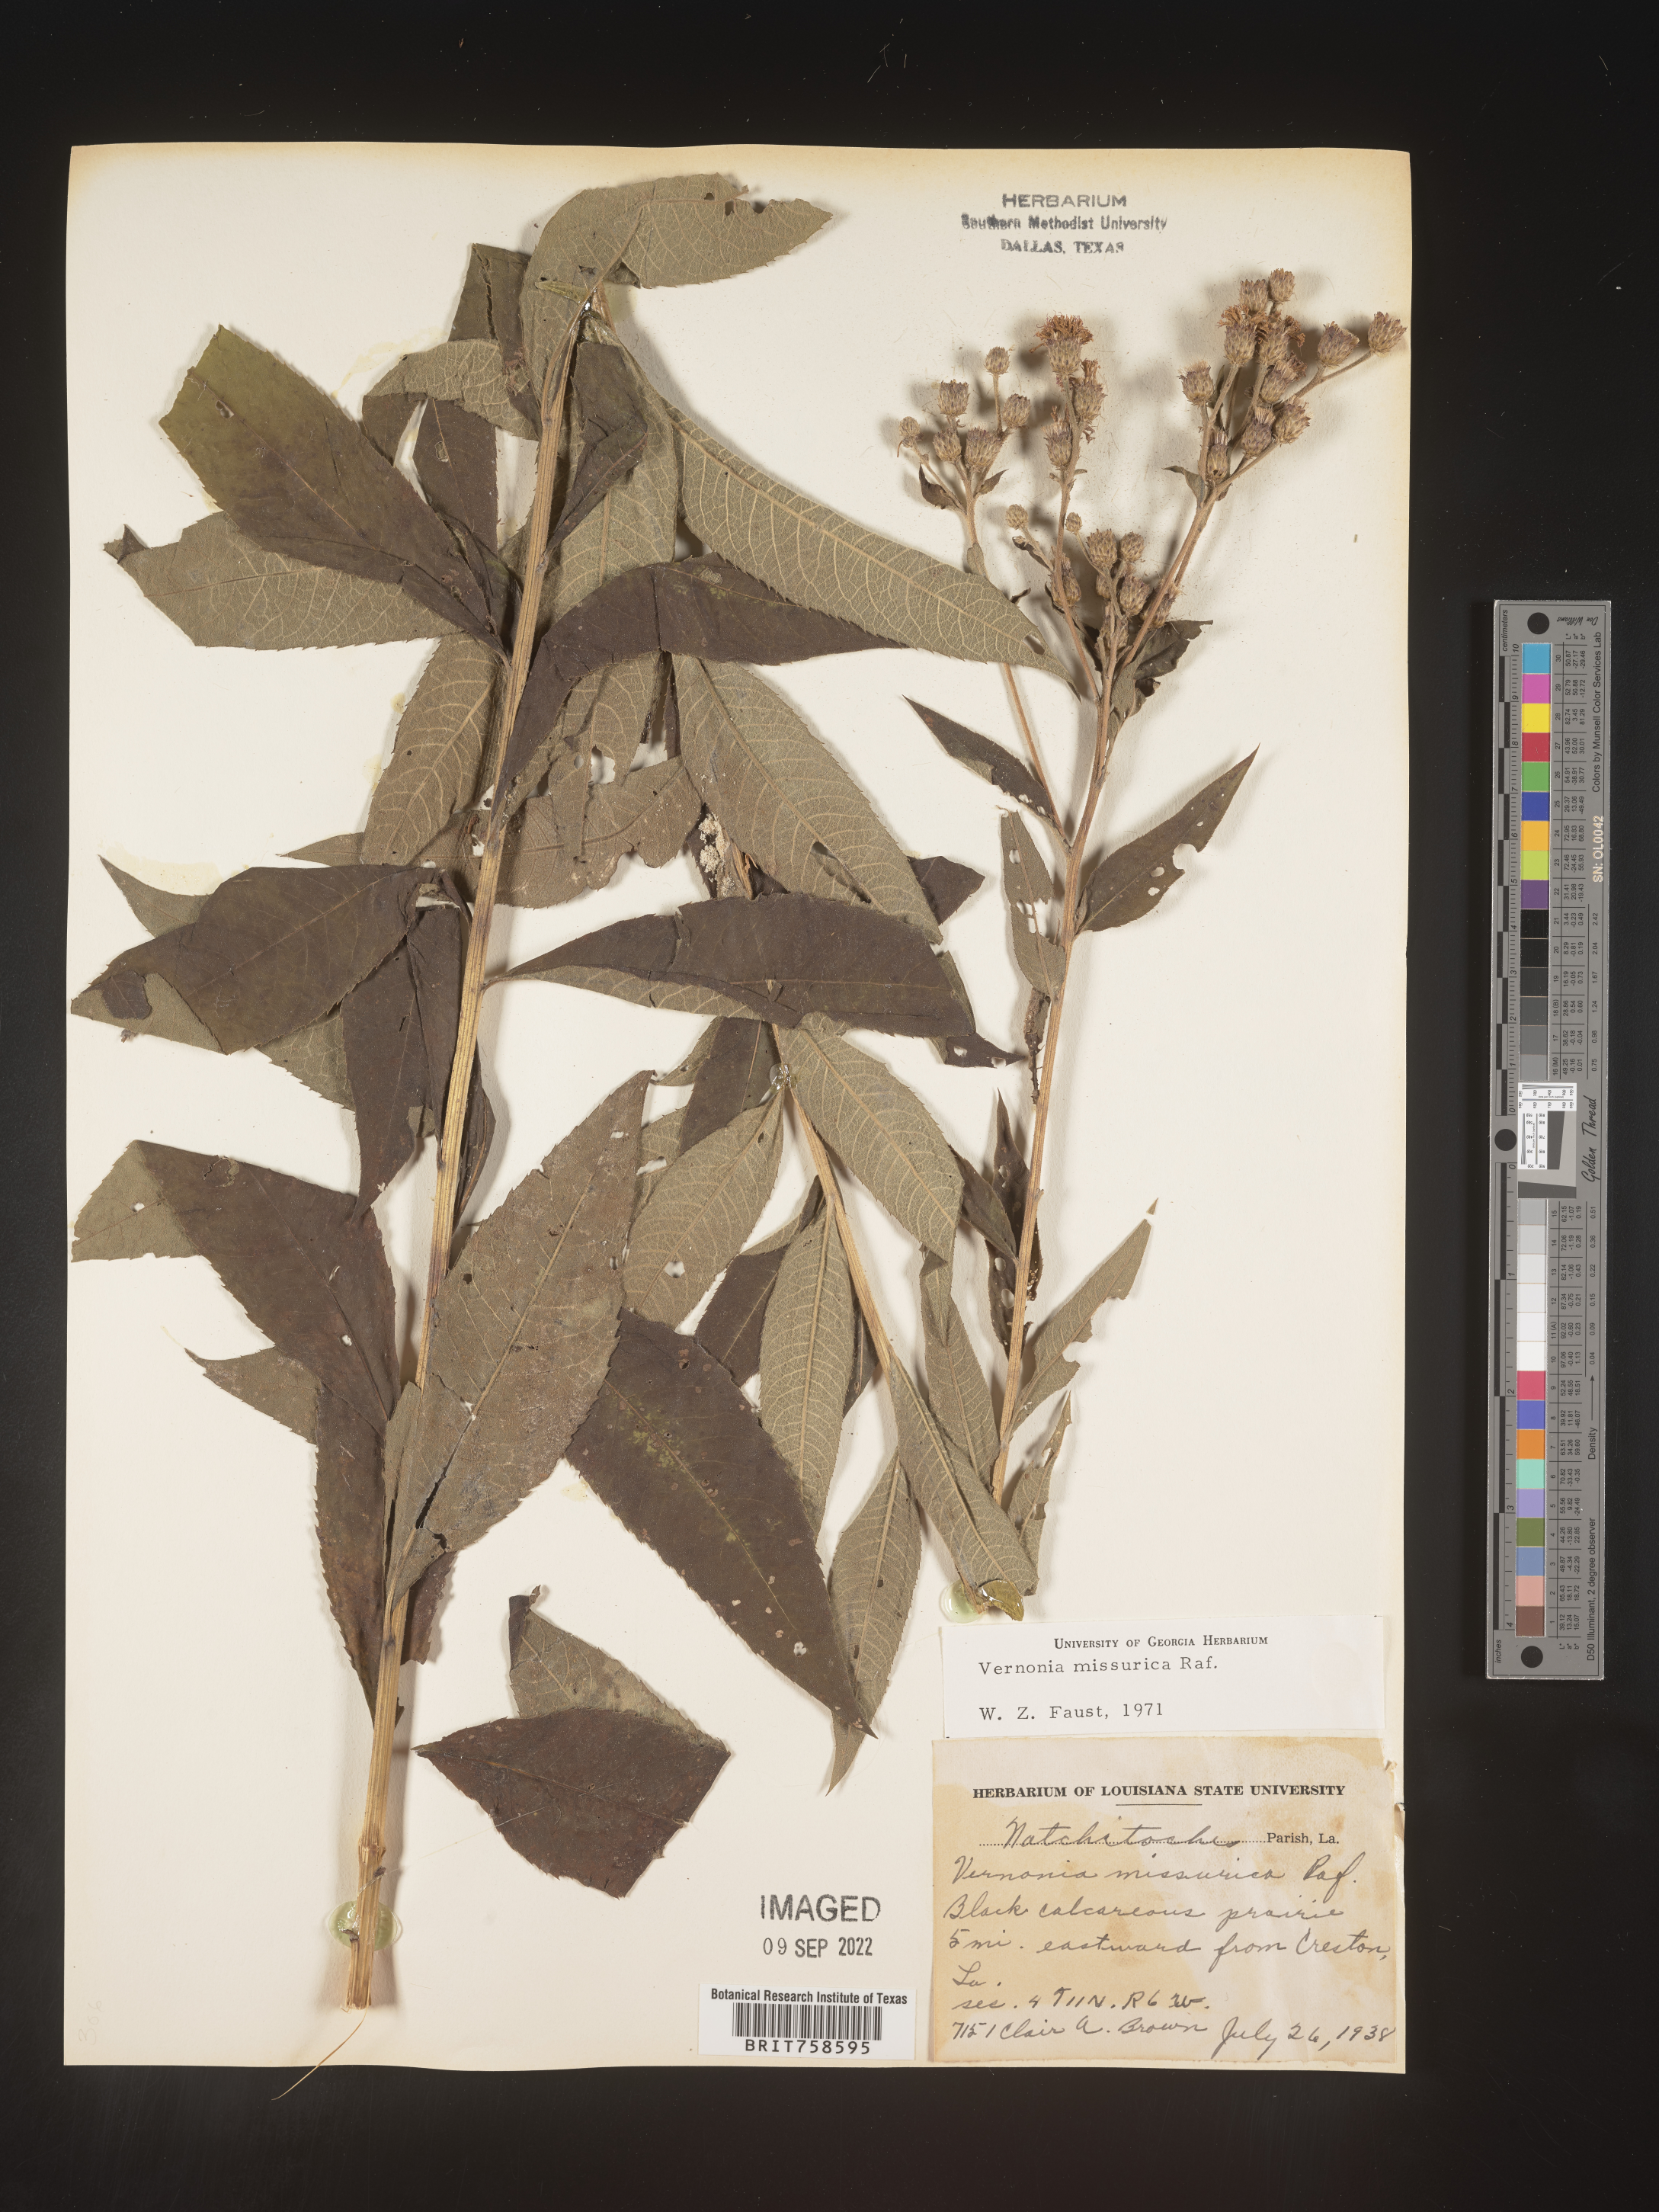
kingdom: Plantae
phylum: Tracheophyta
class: Magnoliopsida
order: Asterales
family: Asteraceae
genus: Vernonia
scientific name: Vernonia missurica
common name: Missouri ironweed
